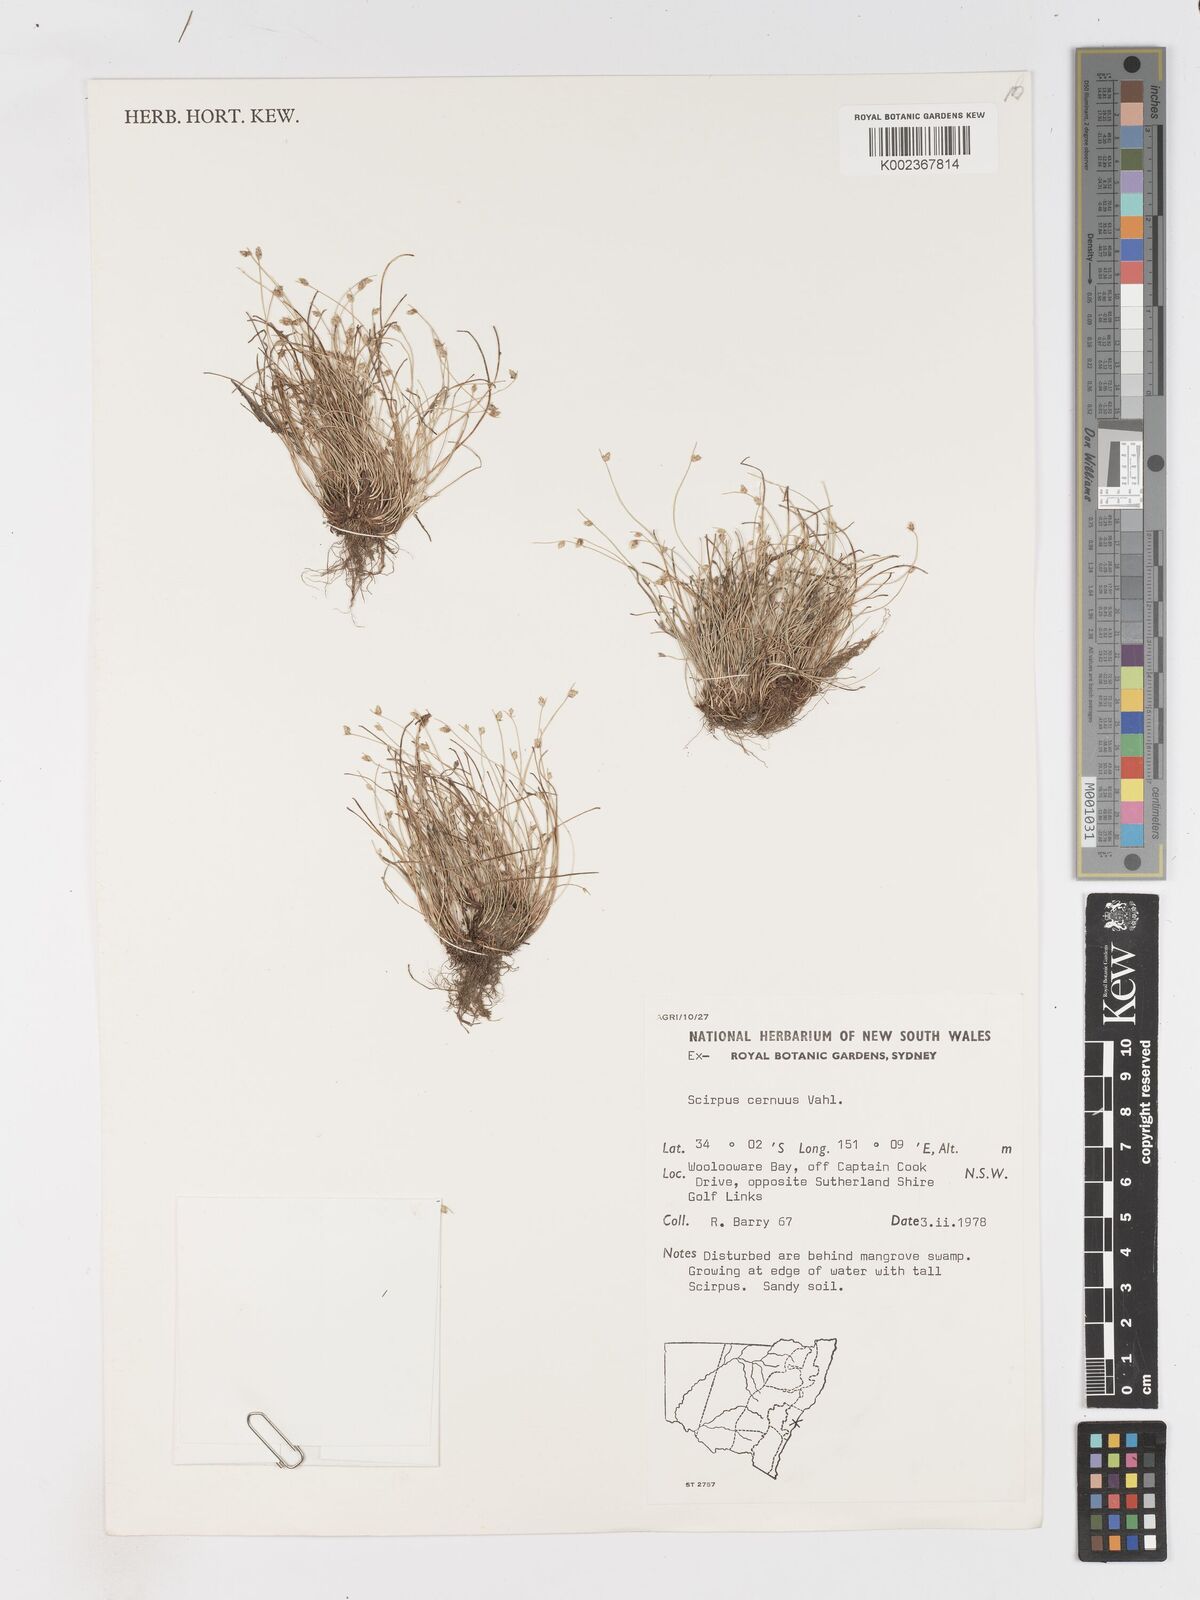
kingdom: Plantae
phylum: Tracheophyta
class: Liliopsida
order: Poales
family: Cyperaceae
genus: Isolepis
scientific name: Isolepis cernua
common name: Slender club-rush
